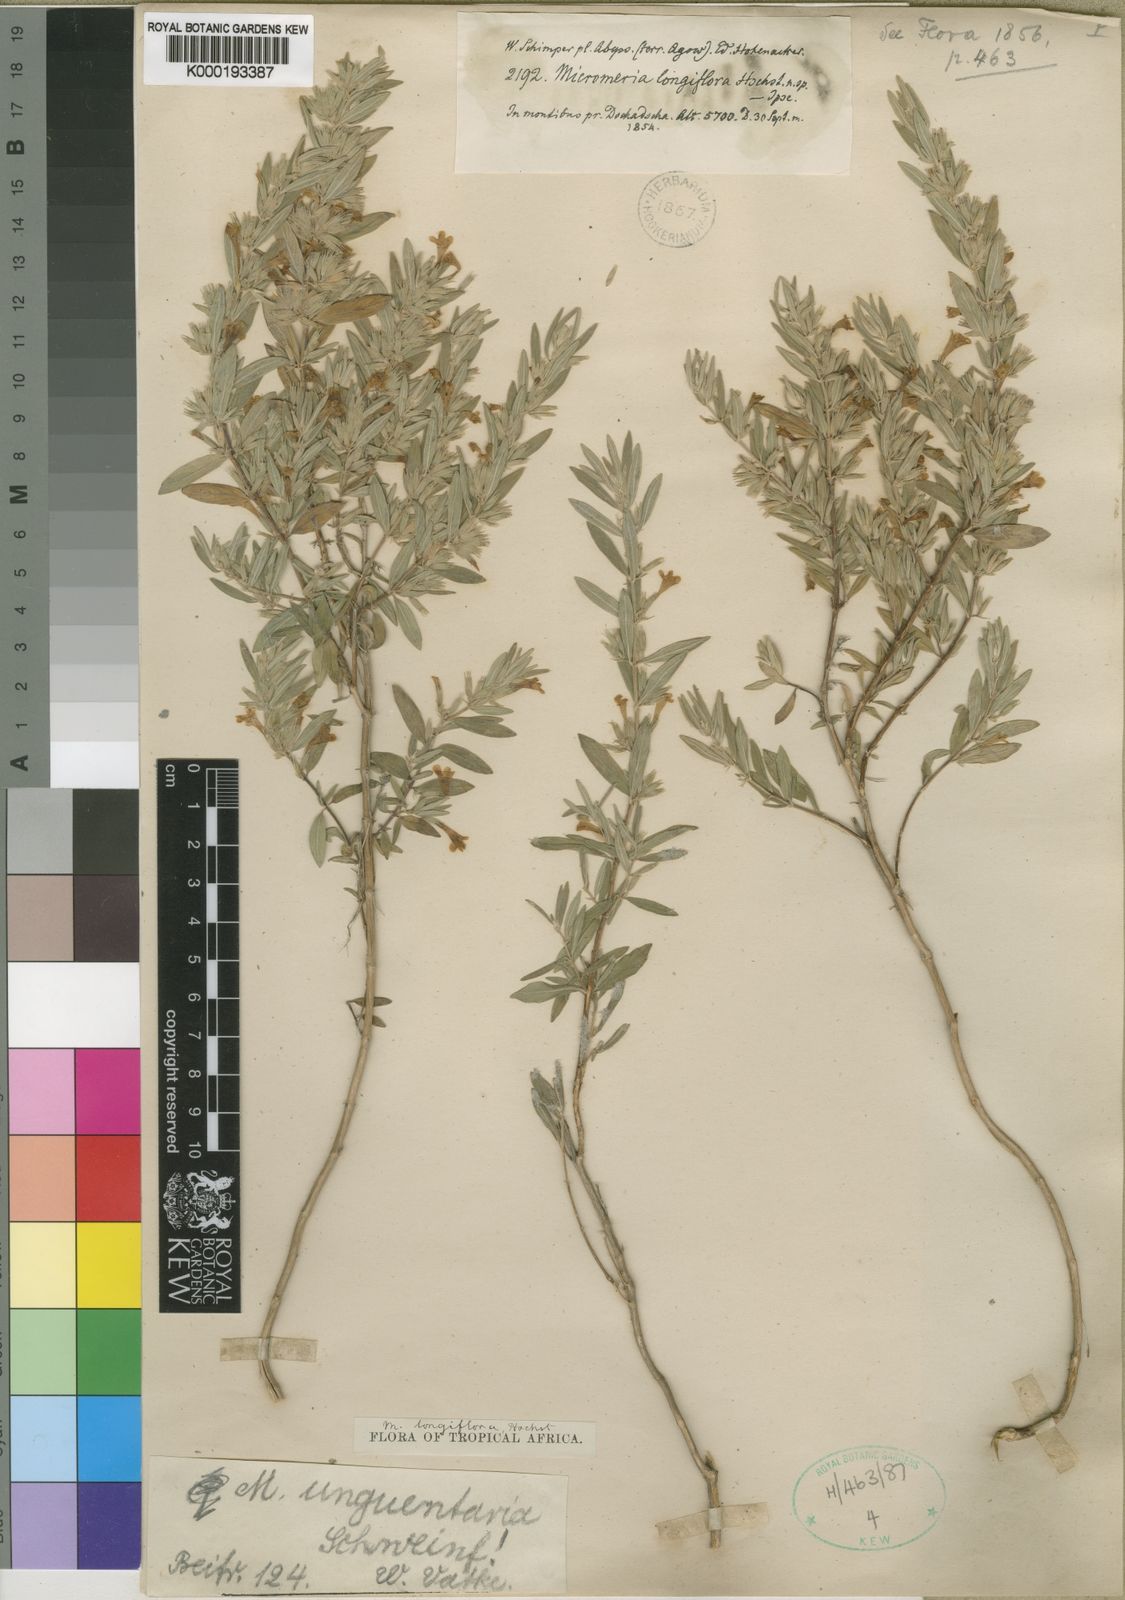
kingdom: Plantae
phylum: Tracheophyta
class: Magnoliopsida
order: Lamiales
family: Lamiaceae
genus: Micromeria
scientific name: Micromeria unguentaria
